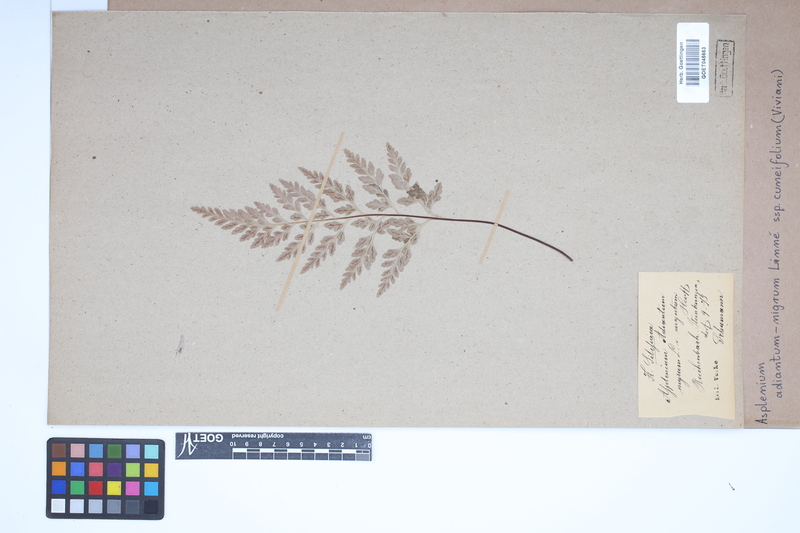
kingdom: Plantae
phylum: Tracheophyta
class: Polypodiopsida
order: Polypodiales
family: Aspleniaceae
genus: Asplenium
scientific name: Asplenium cuneifolium
